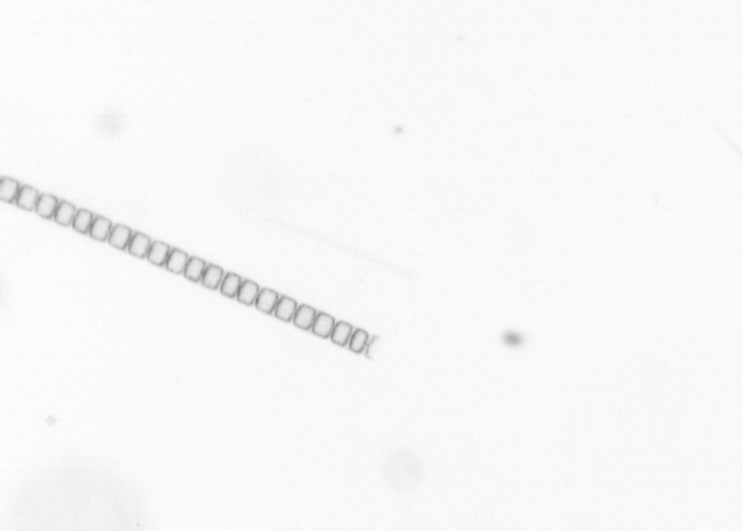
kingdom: Chromista
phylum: Ochrophyta
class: Bacillariophyceae
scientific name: Bacillariophyceae
